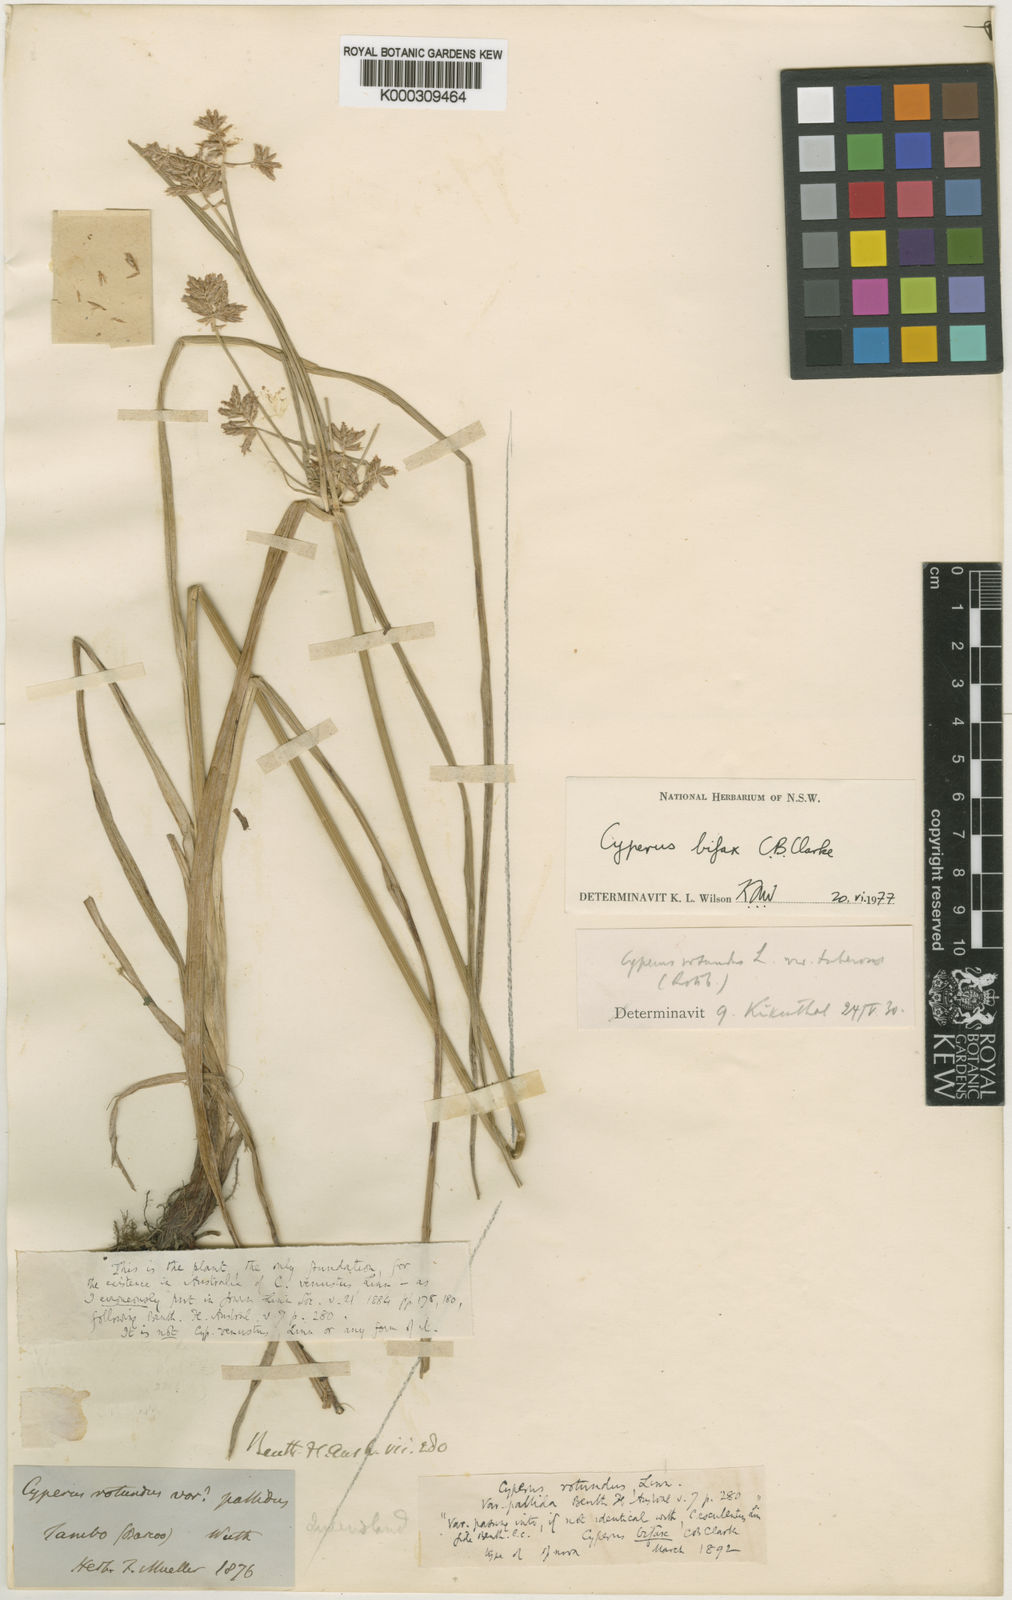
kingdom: Plantae
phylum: Tracheophyta
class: Liliopsida
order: Poales
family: Cyperaceae
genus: Cyperus
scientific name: Cyperus bifax
